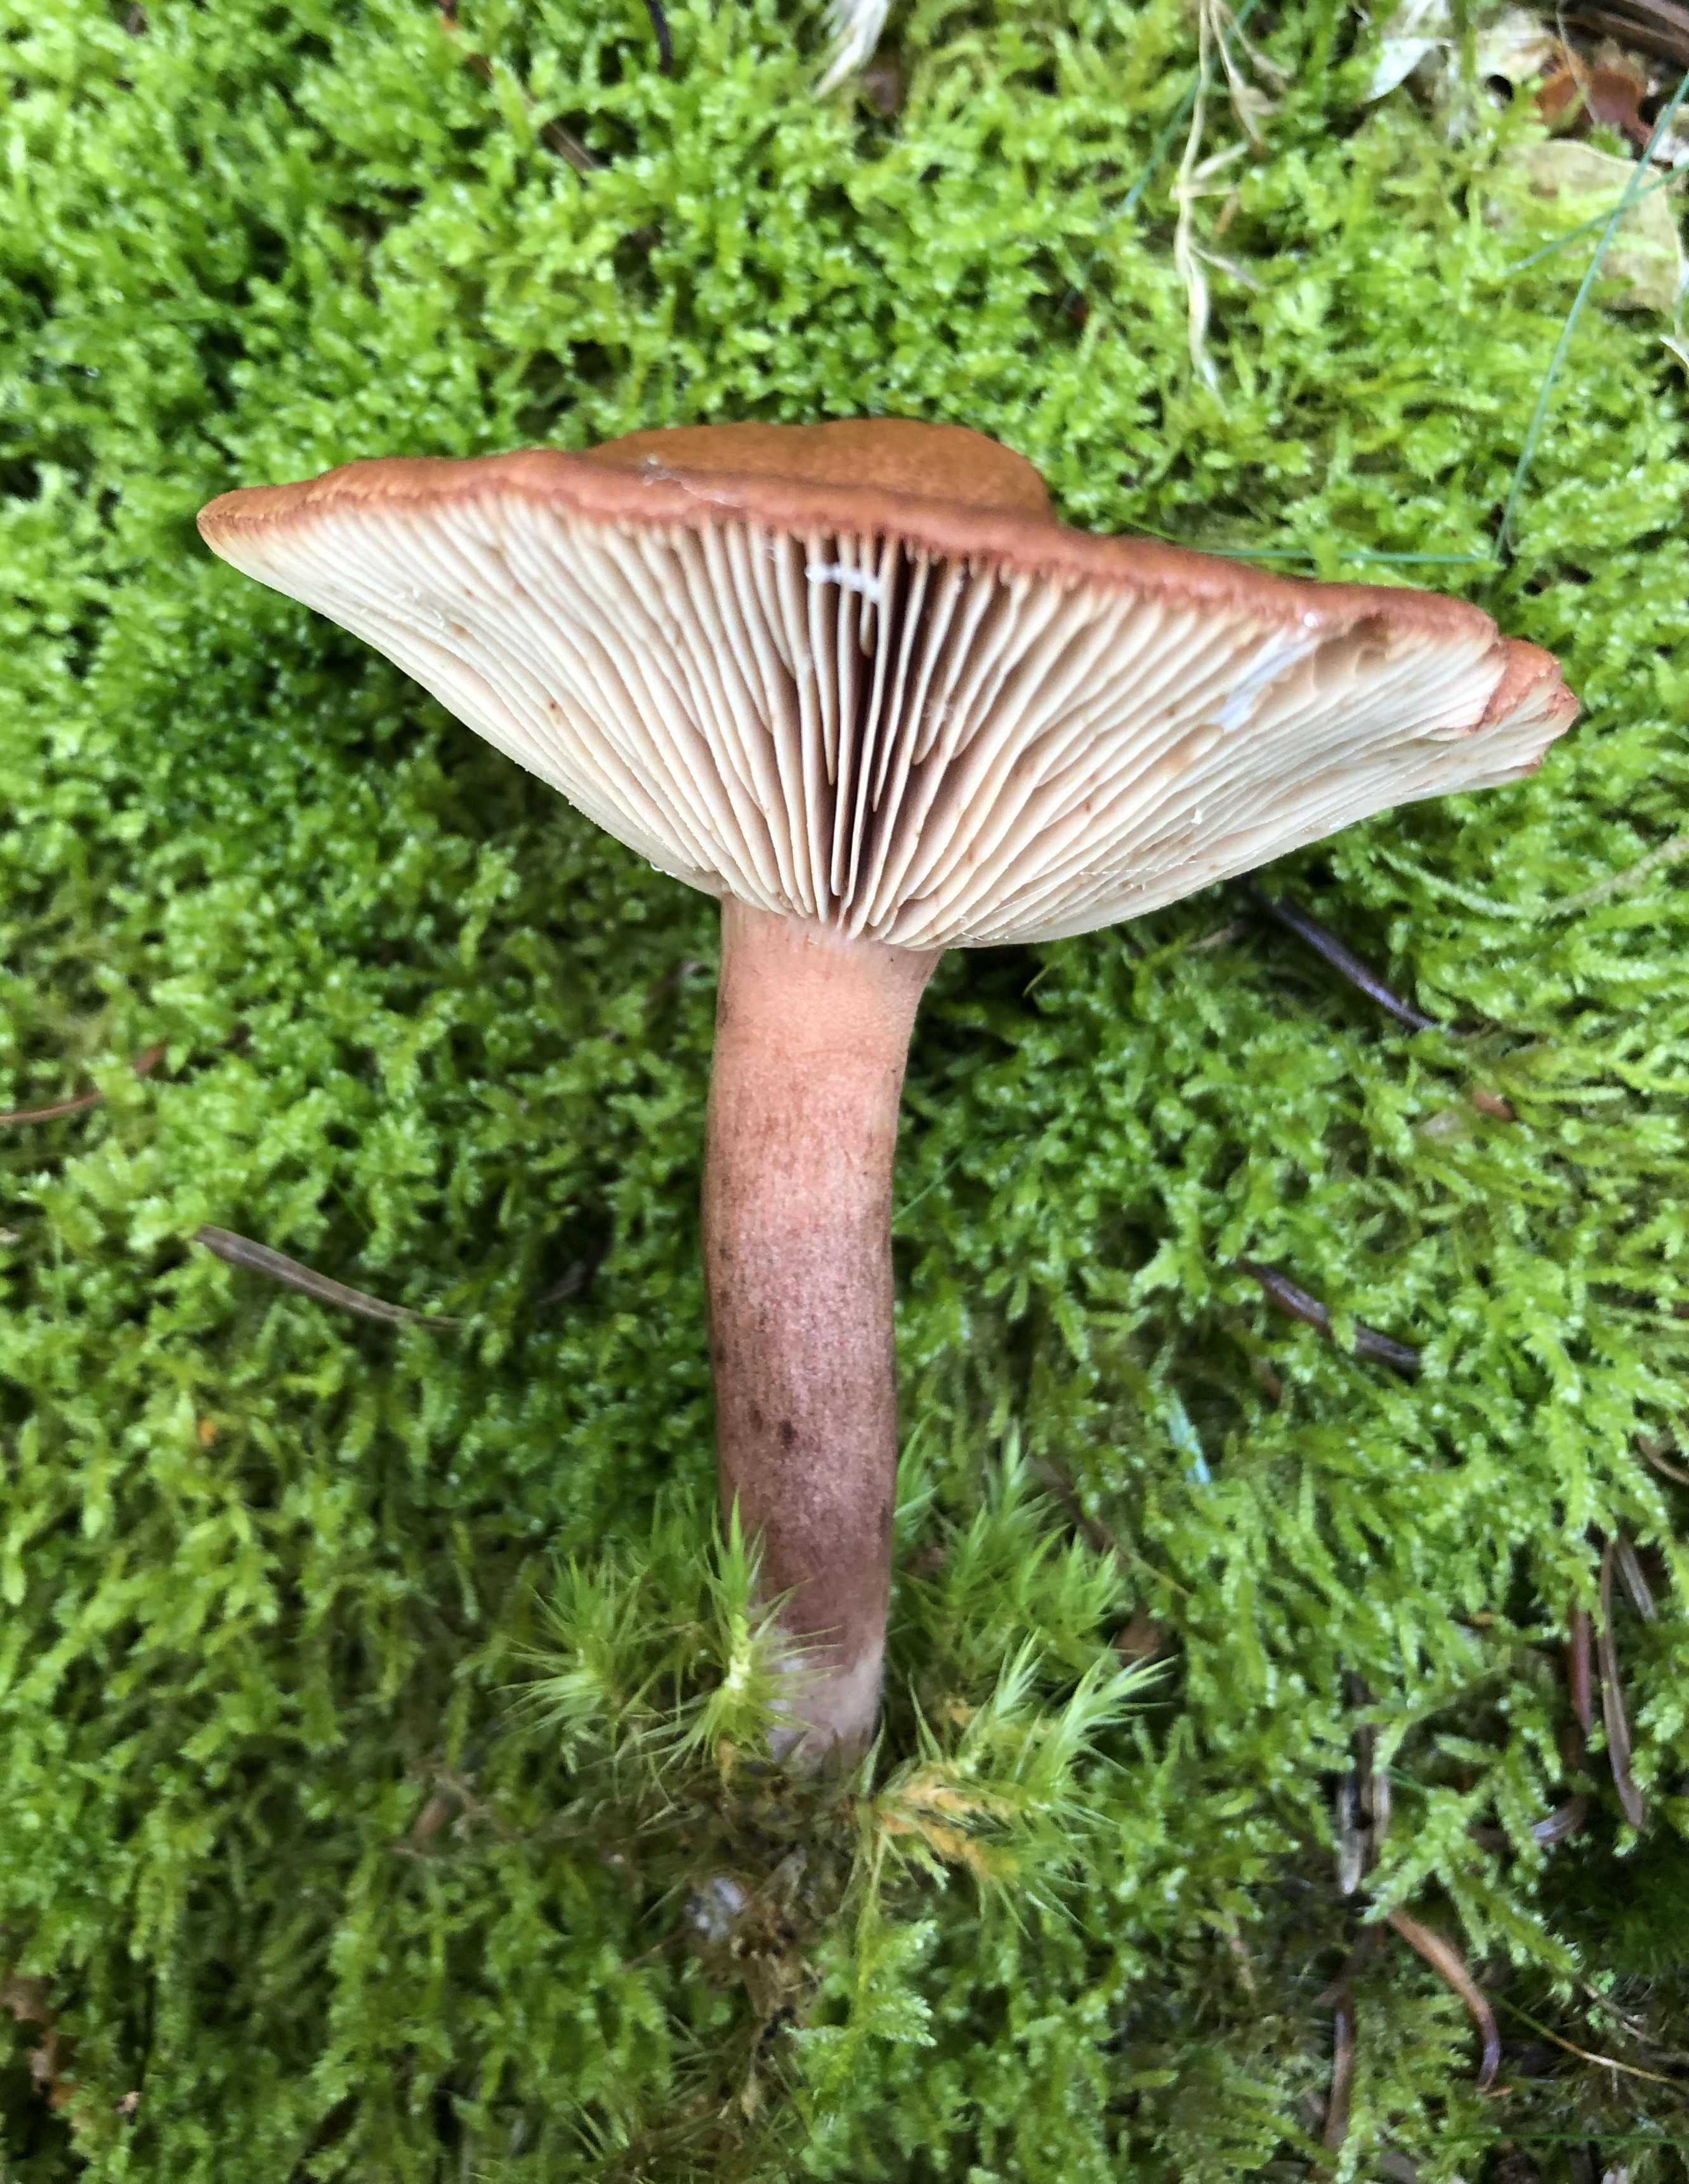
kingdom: Fungi
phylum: Basidiomycota
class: Agaricomycetes
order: Russulales
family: Russulaceae
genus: Lactarius
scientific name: Lactarius rufus
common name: rødbrun mælkehat
